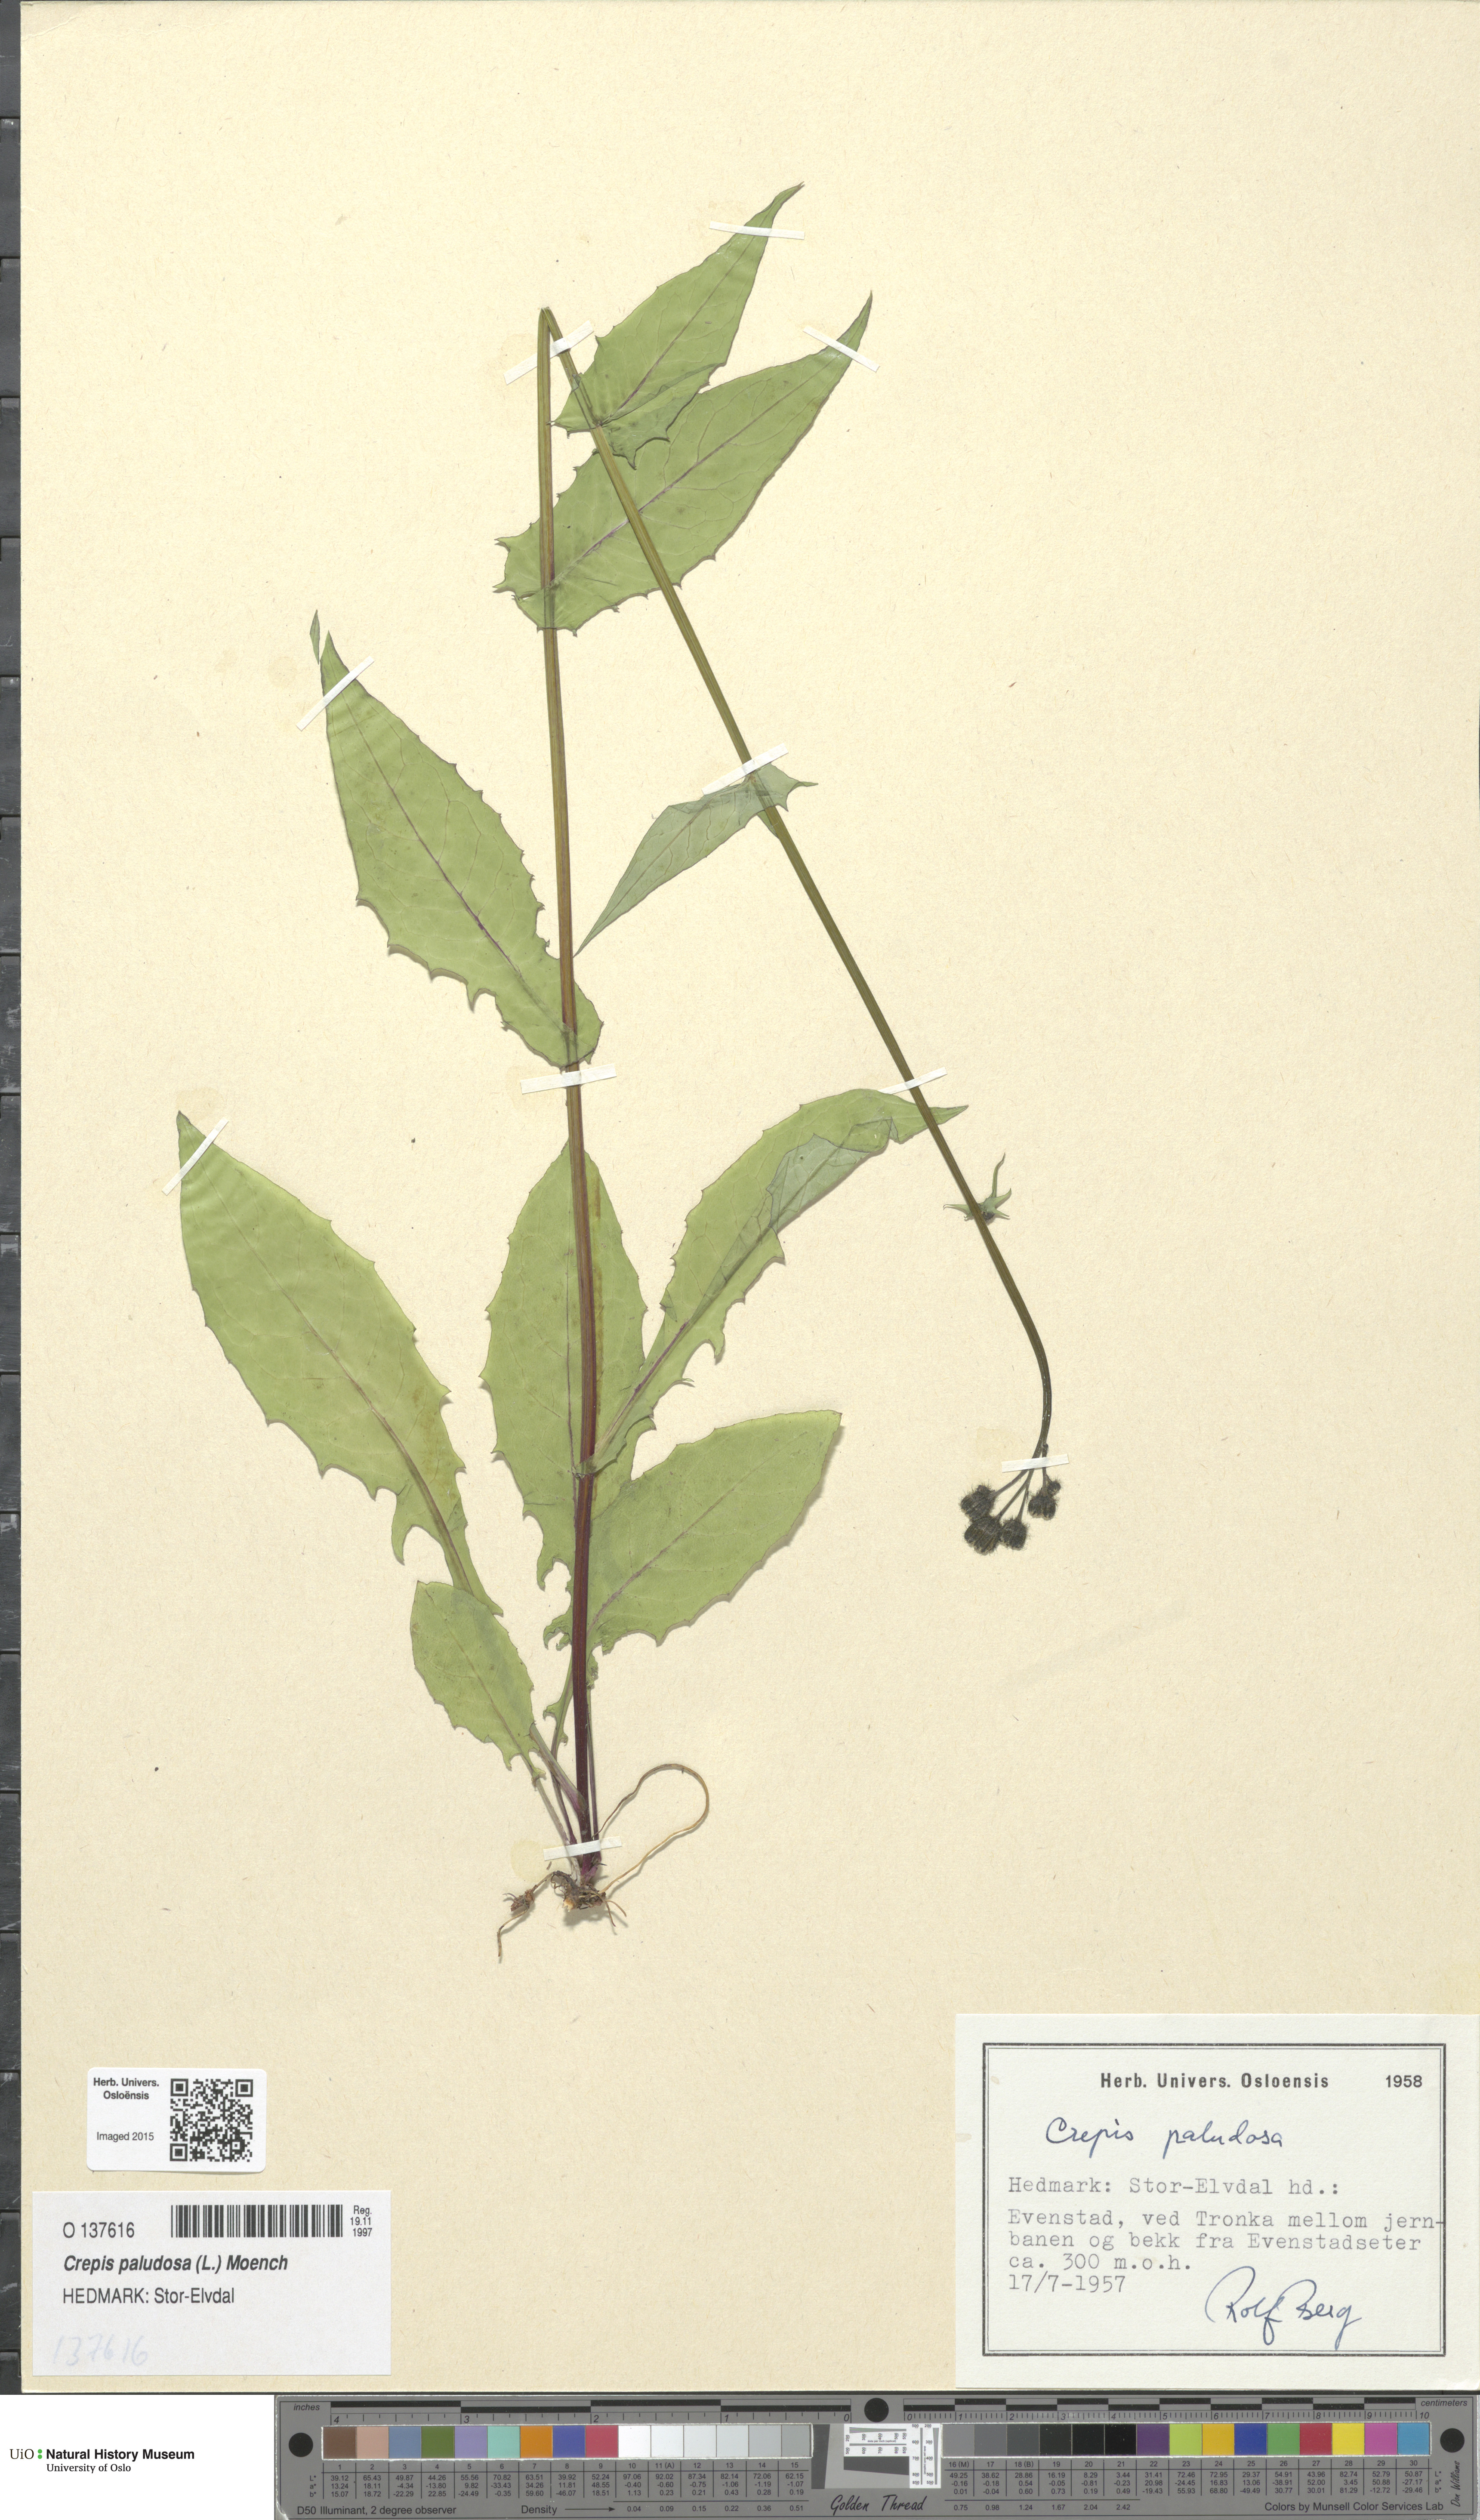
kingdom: Plantae
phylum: Tracheophyta
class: Magnoliopsida
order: Asterales
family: Asteraceae
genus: Crepis
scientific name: Crepis paludosa
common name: Marsh hawk's-beard
